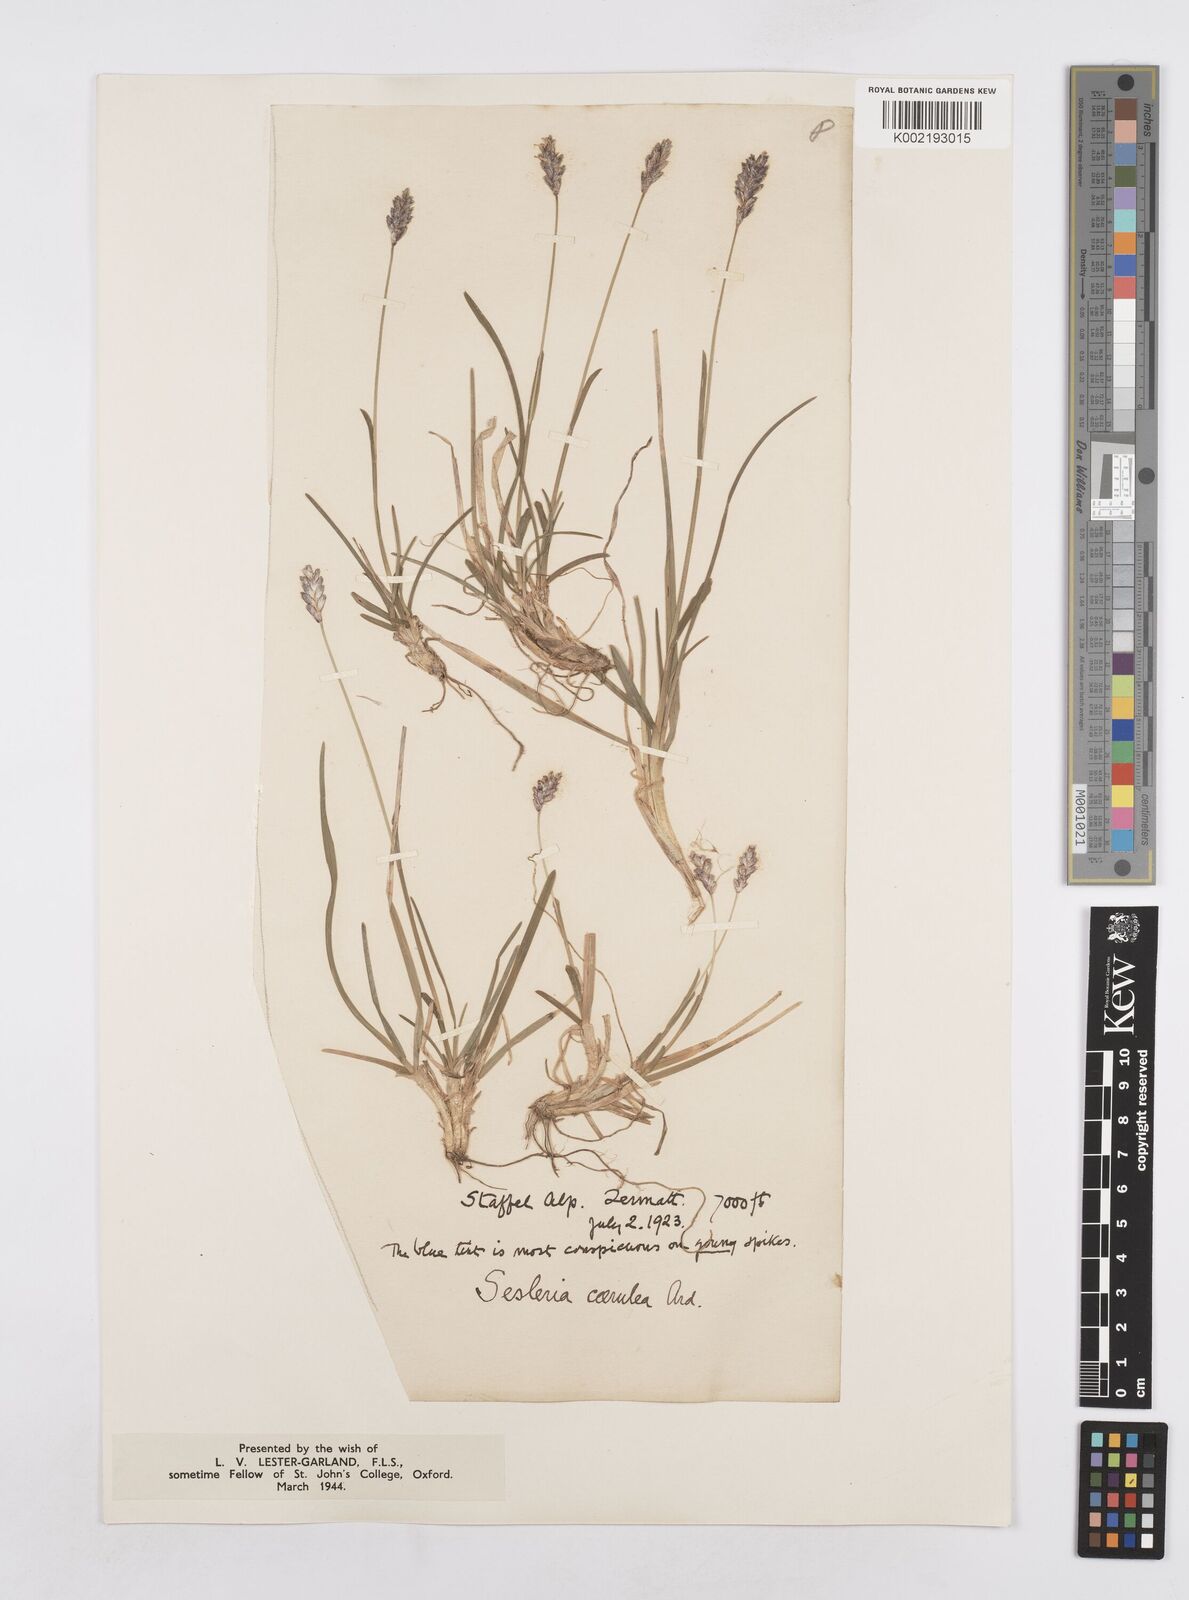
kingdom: Plantae
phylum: Tracheophyta
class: Liliopsida
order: Poales
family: Poaceae
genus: Sesleria
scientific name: Sesleria caerulea
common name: Blue moor-grass
